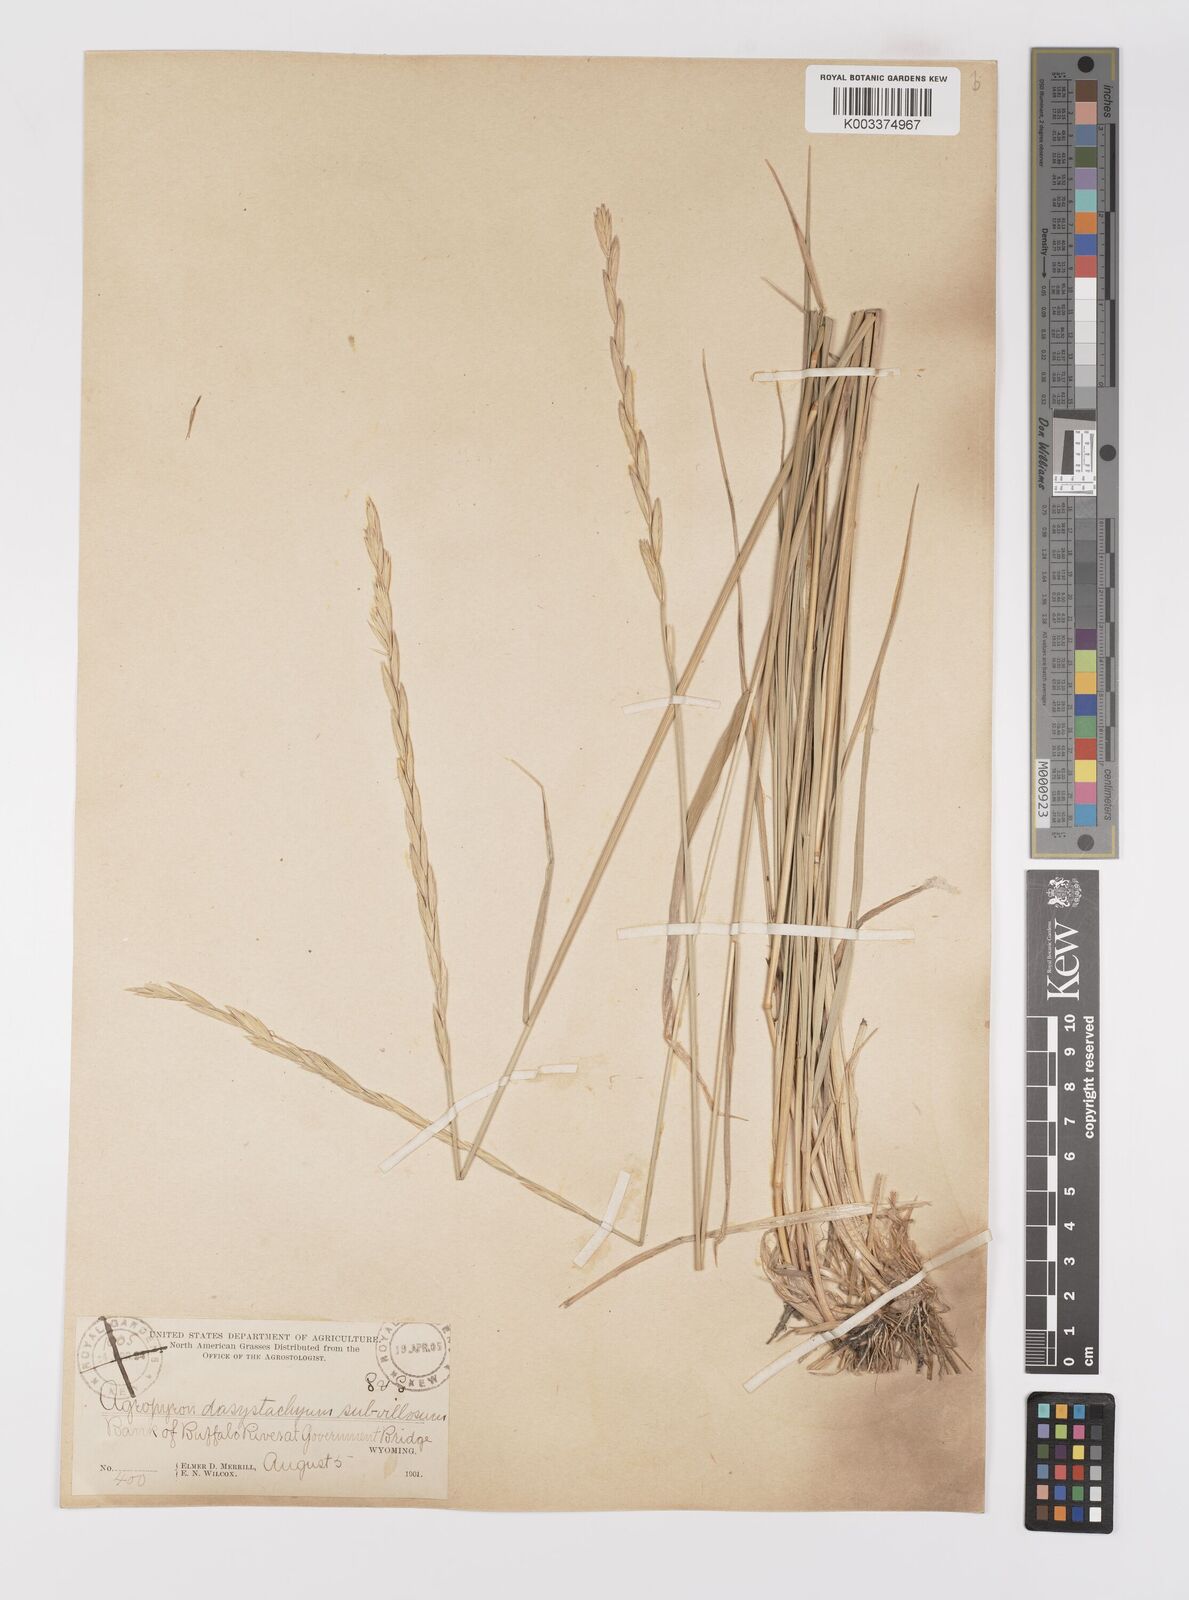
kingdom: Plantae
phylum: Tracheophyta
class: Liliopsida
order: Poales
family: Poaceae
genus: Elymus
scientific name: Elymus lanceolatus
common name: Thick-spike wheatgrass
